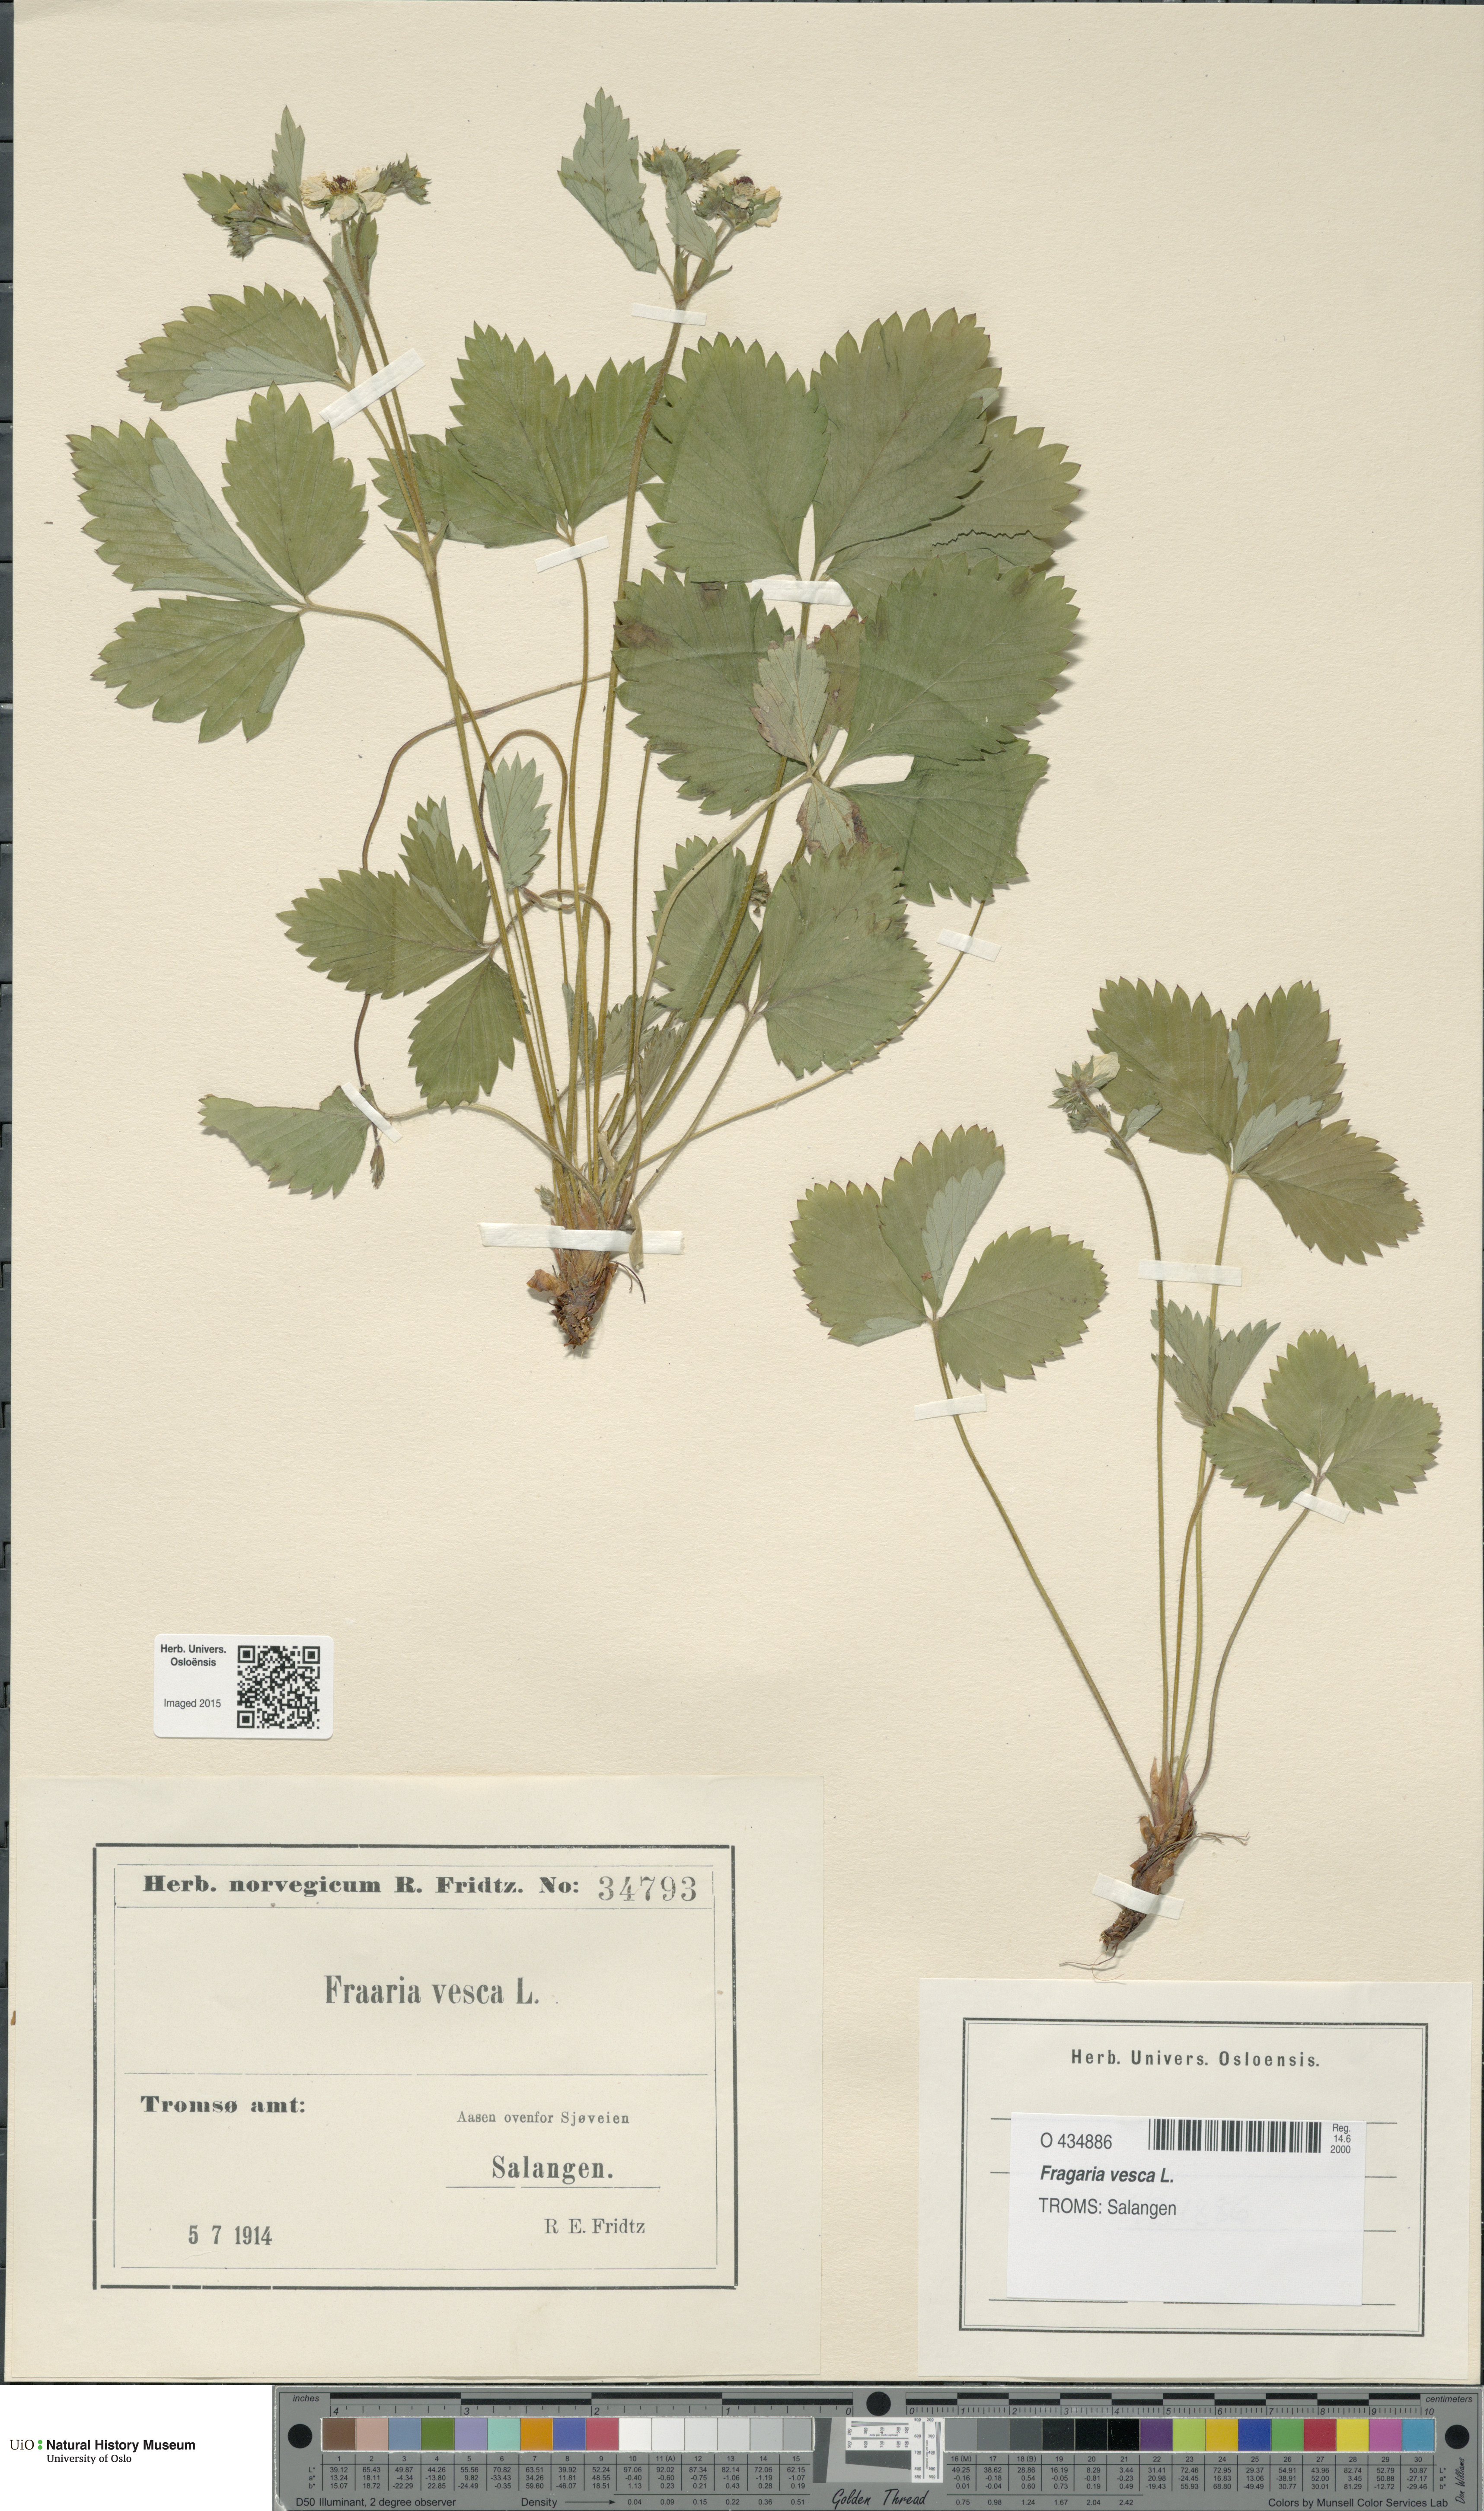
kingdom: Plantae
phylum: Tracheophyta
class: Magnoliopsida
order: Rosales
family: Rosaceae
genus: Fragaria
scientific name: Fragaria vesca
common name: Wild strawberry
